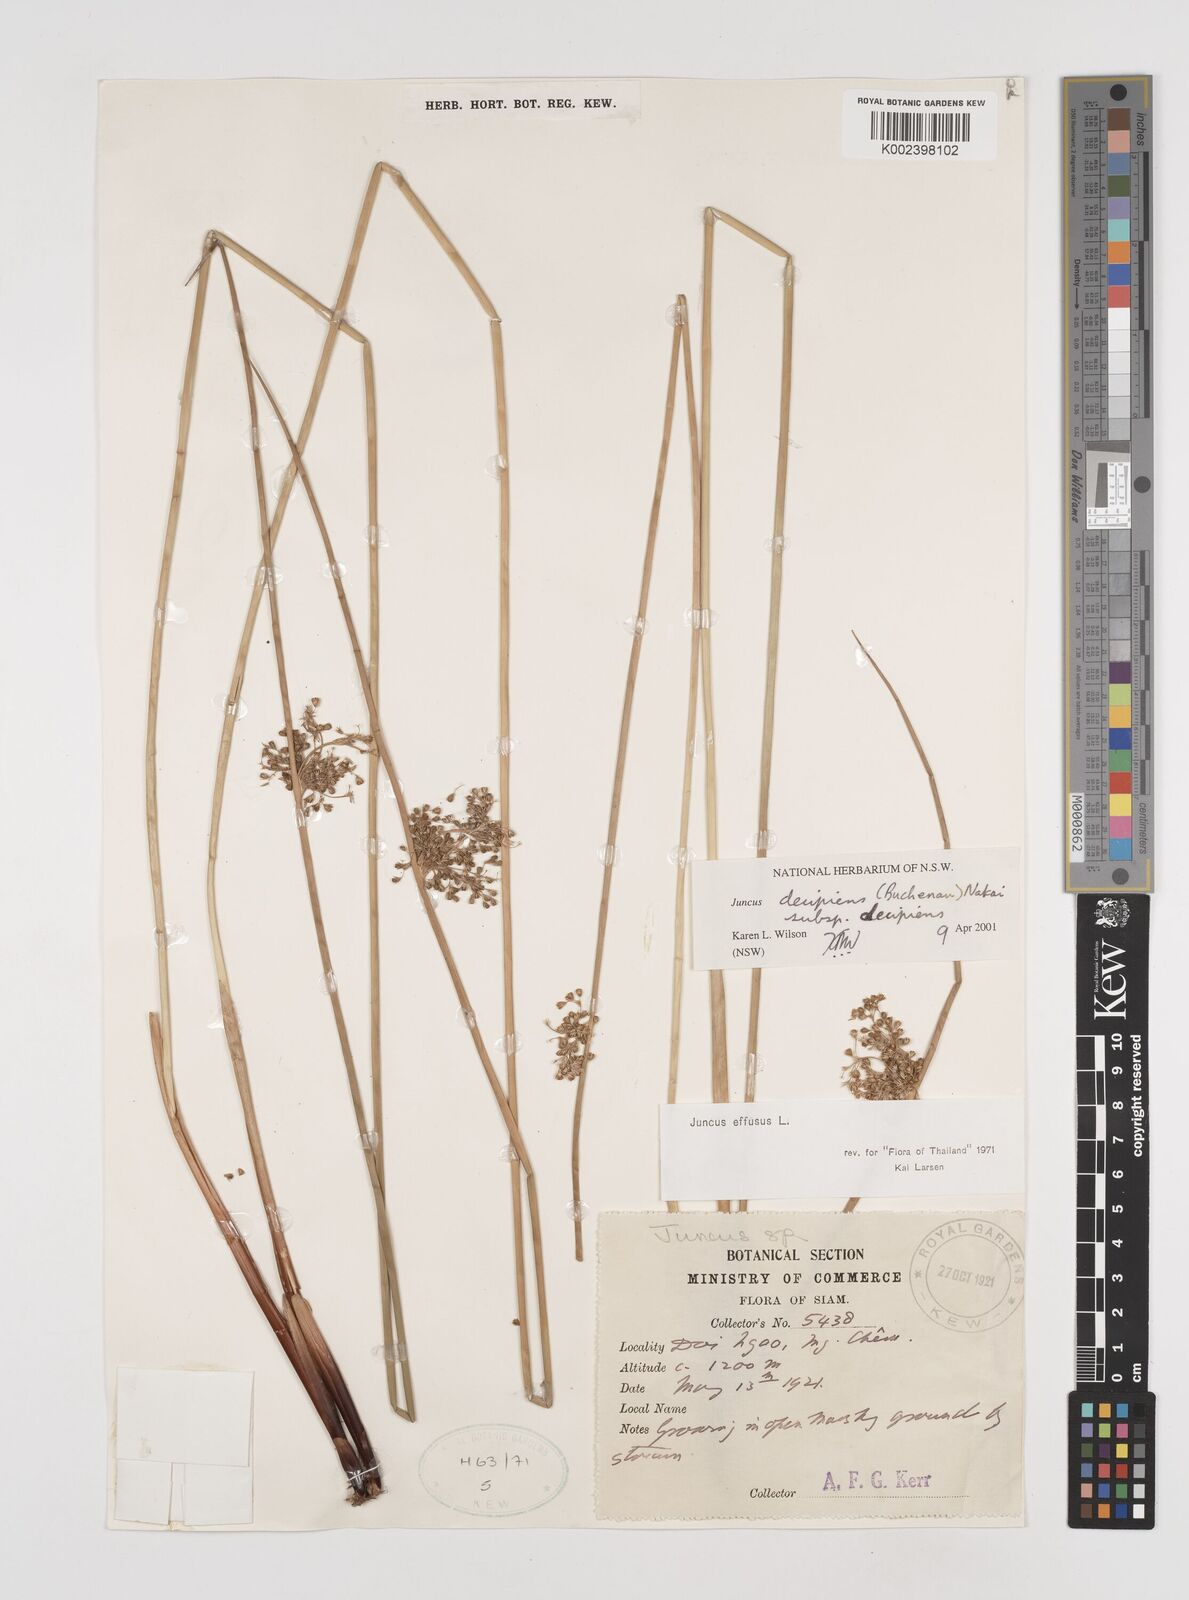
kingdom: Plantae
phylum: Tracheophyta
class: Liliopsida
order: Poales
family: Juncaceae
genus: Juncus
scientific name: Juncus decipiens
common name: Lamp rush
